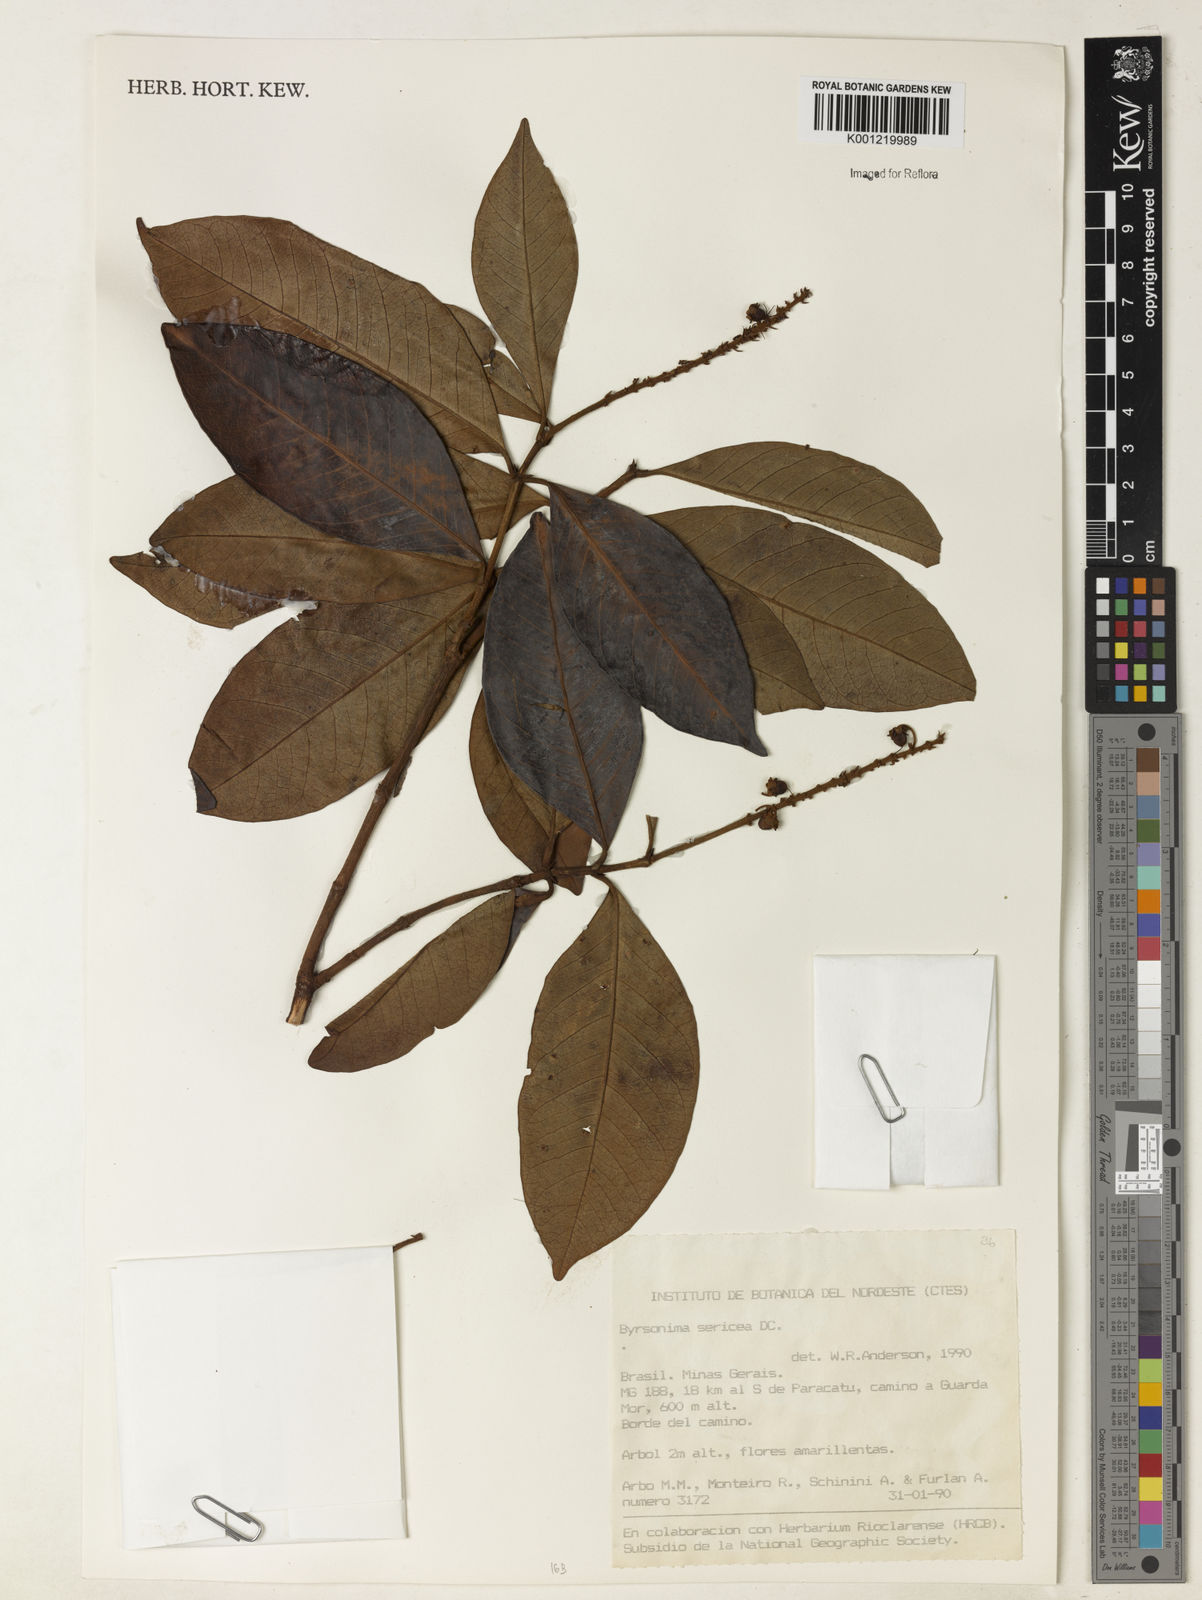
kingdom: Plantae
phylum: Tracheophyta
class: Magnoliopsida
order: Malpighiales
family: Malpighiaceae
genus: Byrsonima
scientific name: Byrsonima sericea
